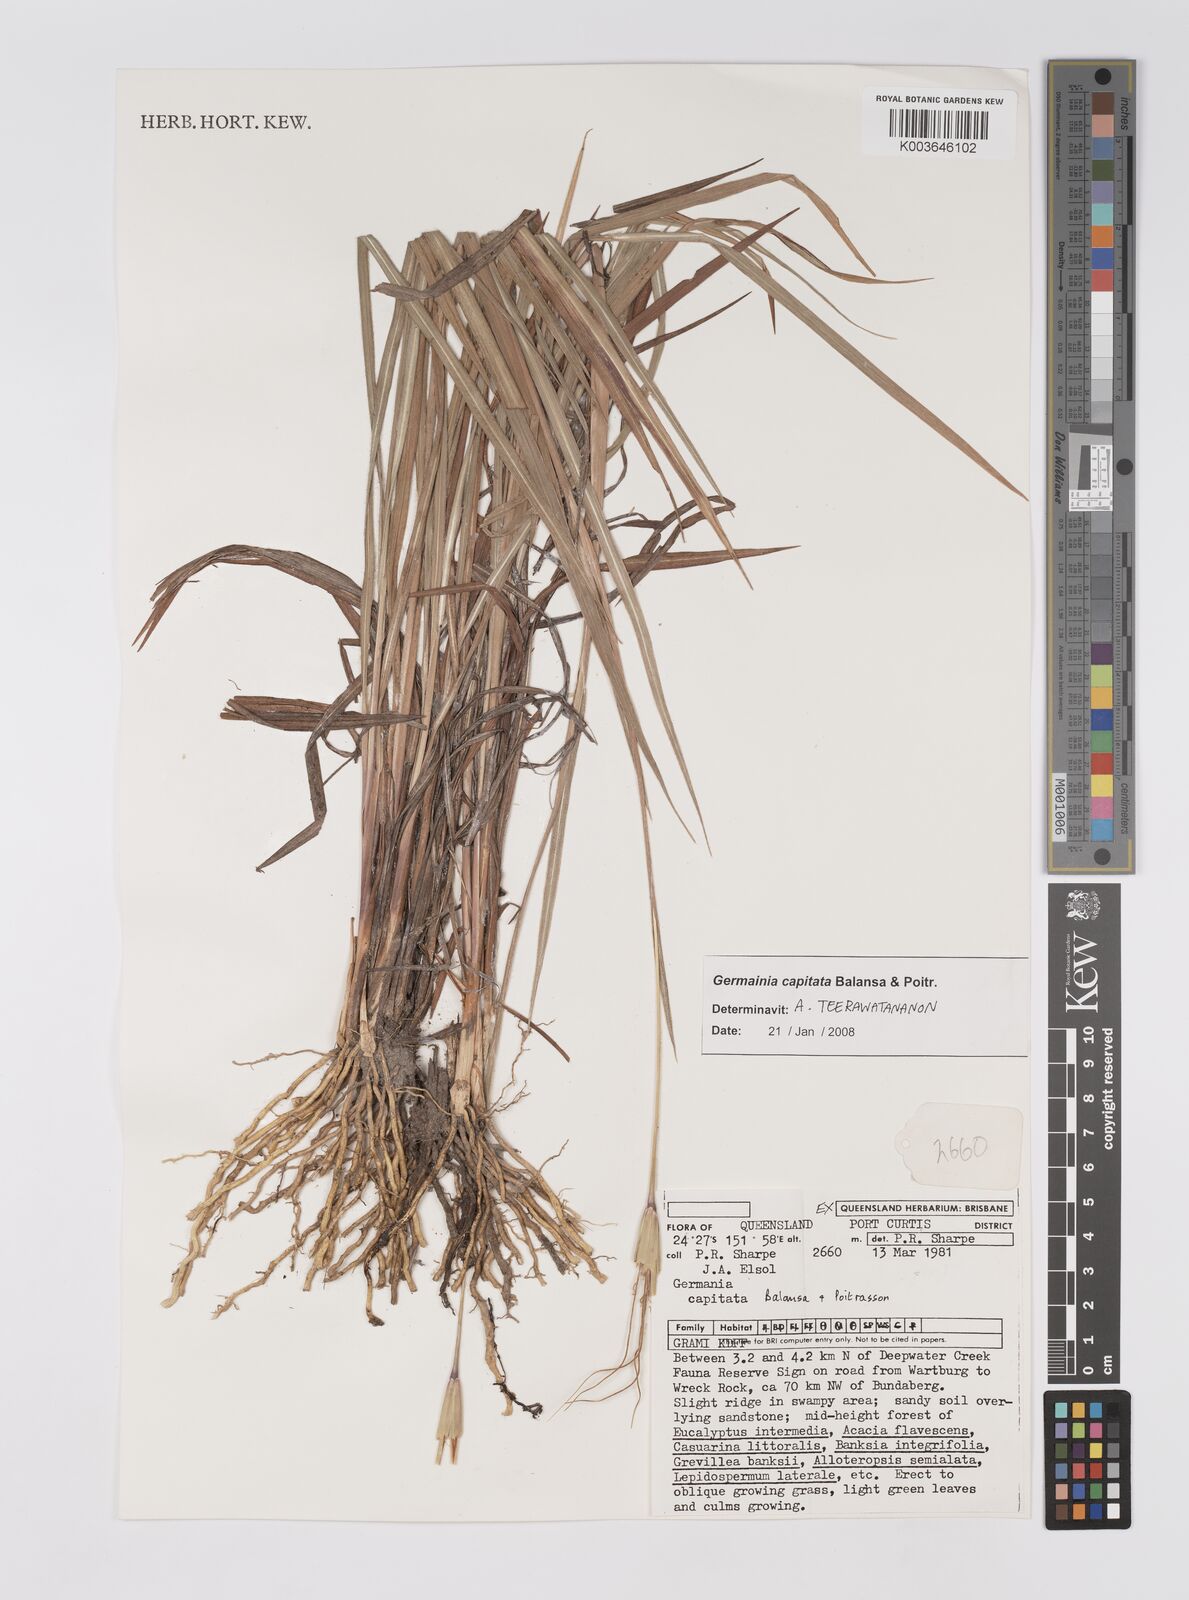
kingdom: Plantae
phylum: Tracheophyta
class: Liliopsida
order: Poales
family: Poaceae
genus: Germainia
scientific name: Germainia capitata
